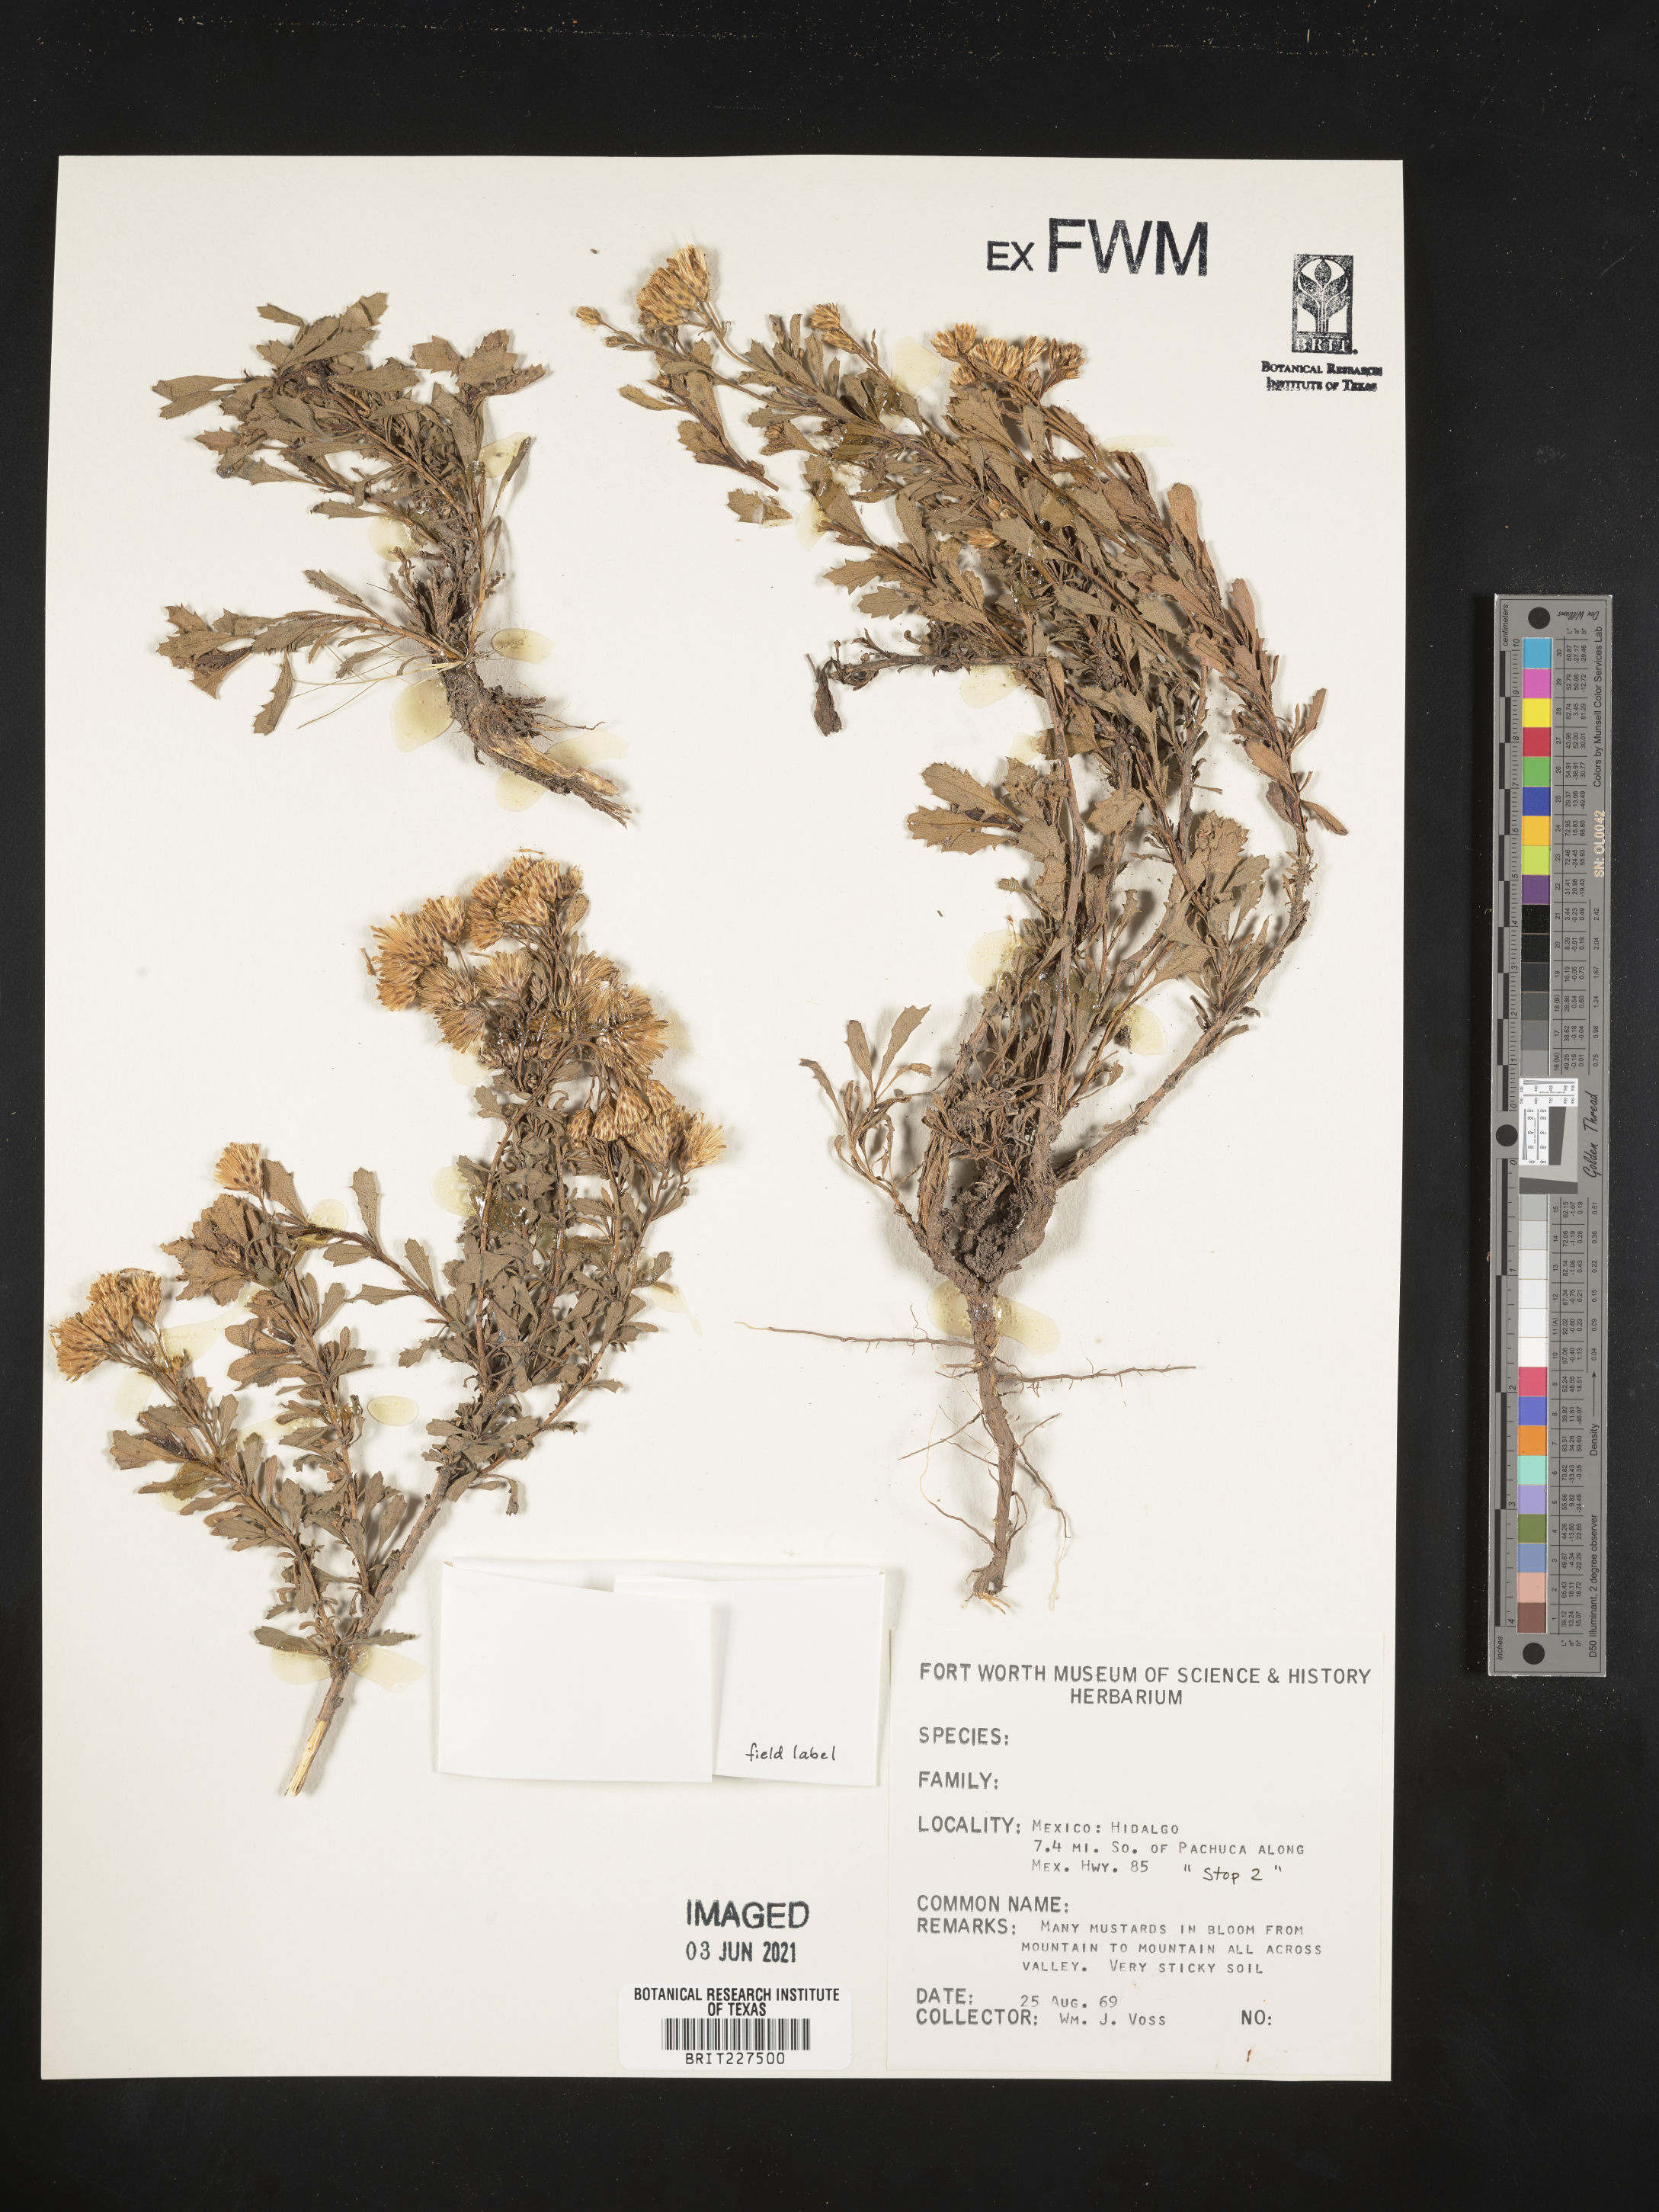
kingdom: Plantae
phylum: Tracheophyta
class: Magnoliopsida
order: Asterales
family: Asteraceae
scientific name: Asteraceae
